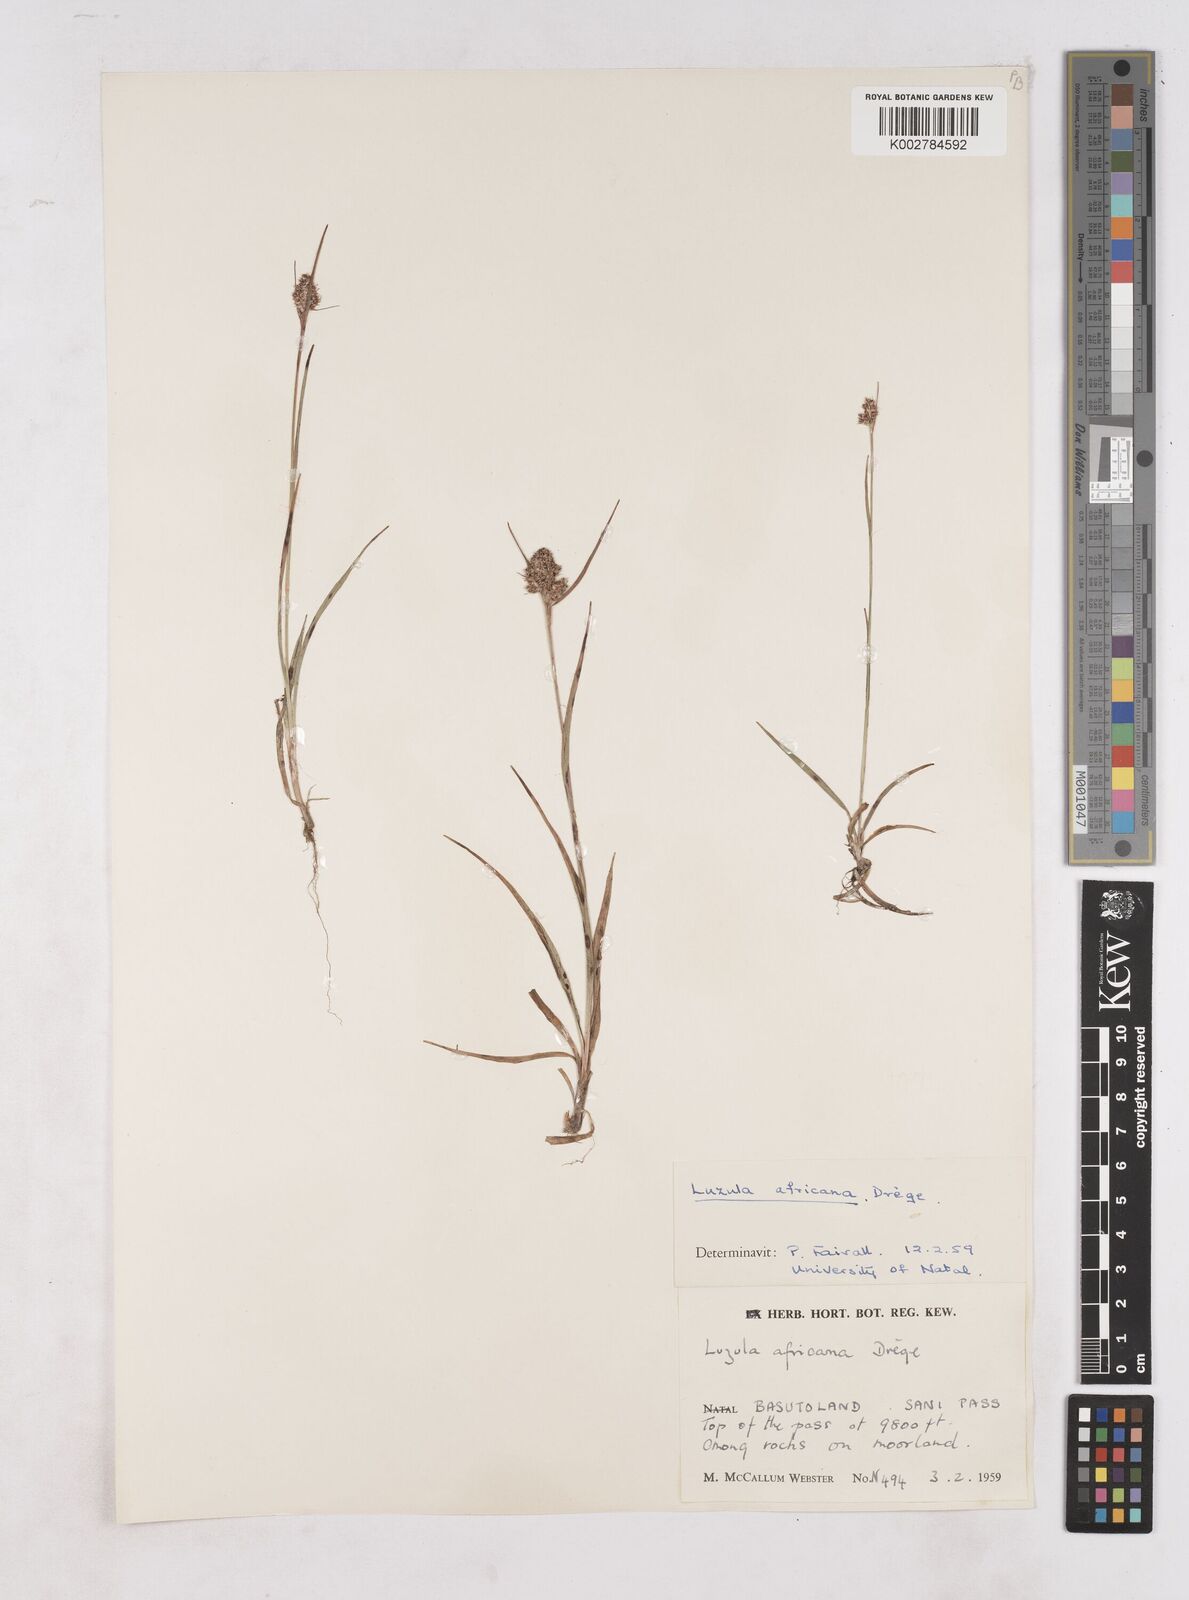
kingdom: Plantae
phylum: Tracheophyta
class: Liliopsida
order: Poales
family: Juncaceae
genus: Luzula
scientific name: Luzula africana
